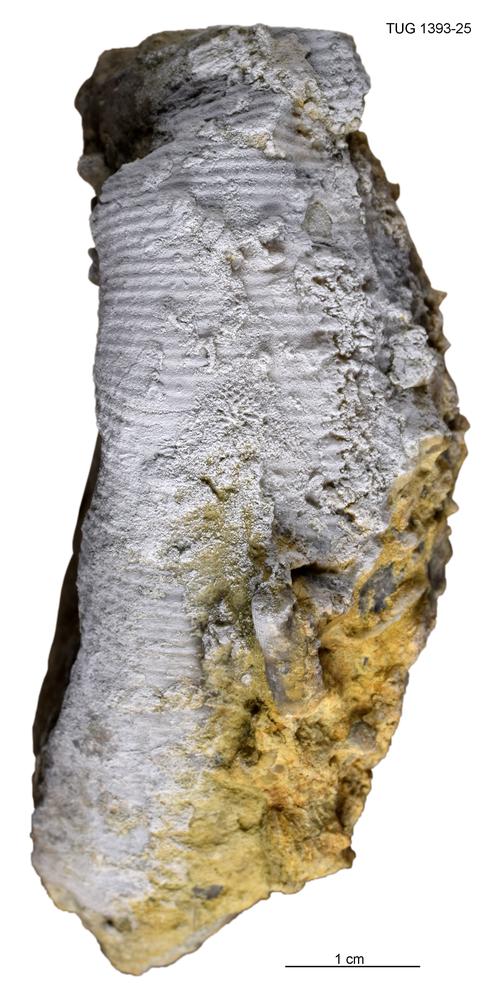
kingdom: Animalia
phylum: Mollusca
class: Cephalopoda
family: Oncoceratidae
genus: Beloitoceras
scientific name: Beloitoceras
